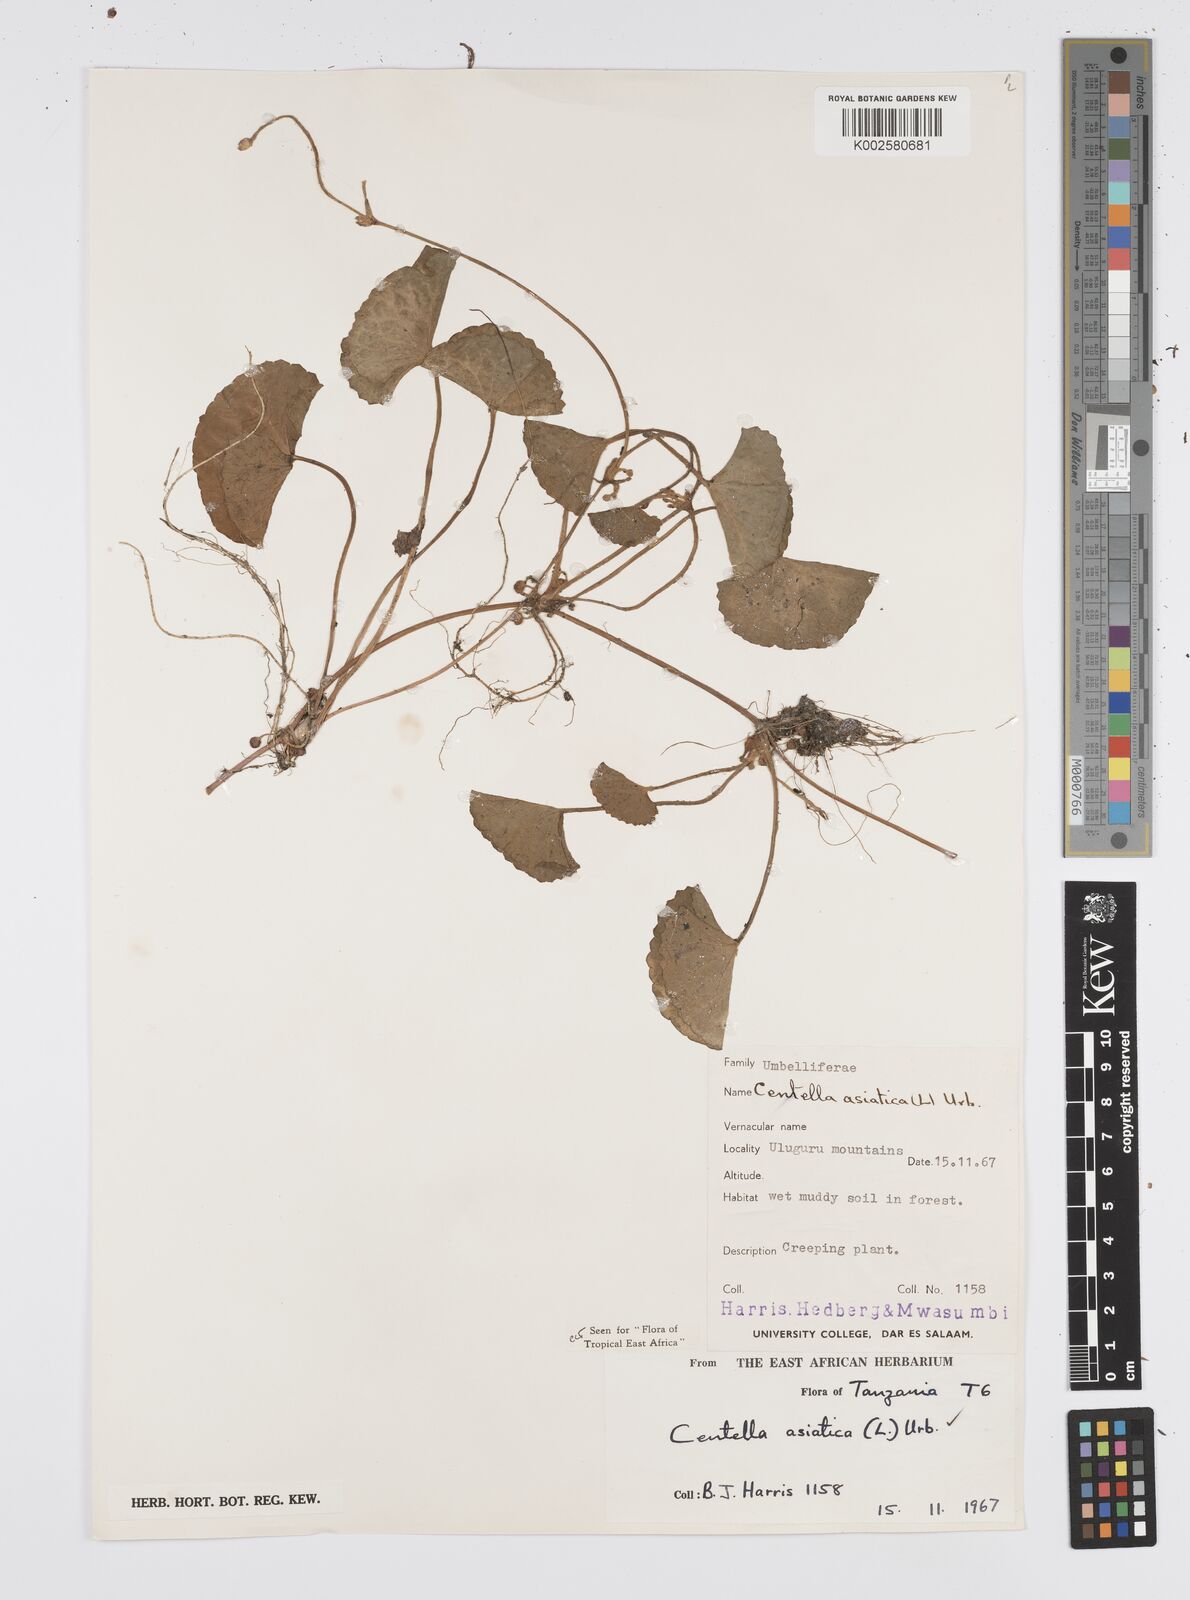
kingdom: Plantae
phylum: Tracheophyta
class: Magnoliopsida
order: Apiales
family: Apiaceae
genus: Centella
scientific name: Centella asiatica
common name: Spadeleaf
